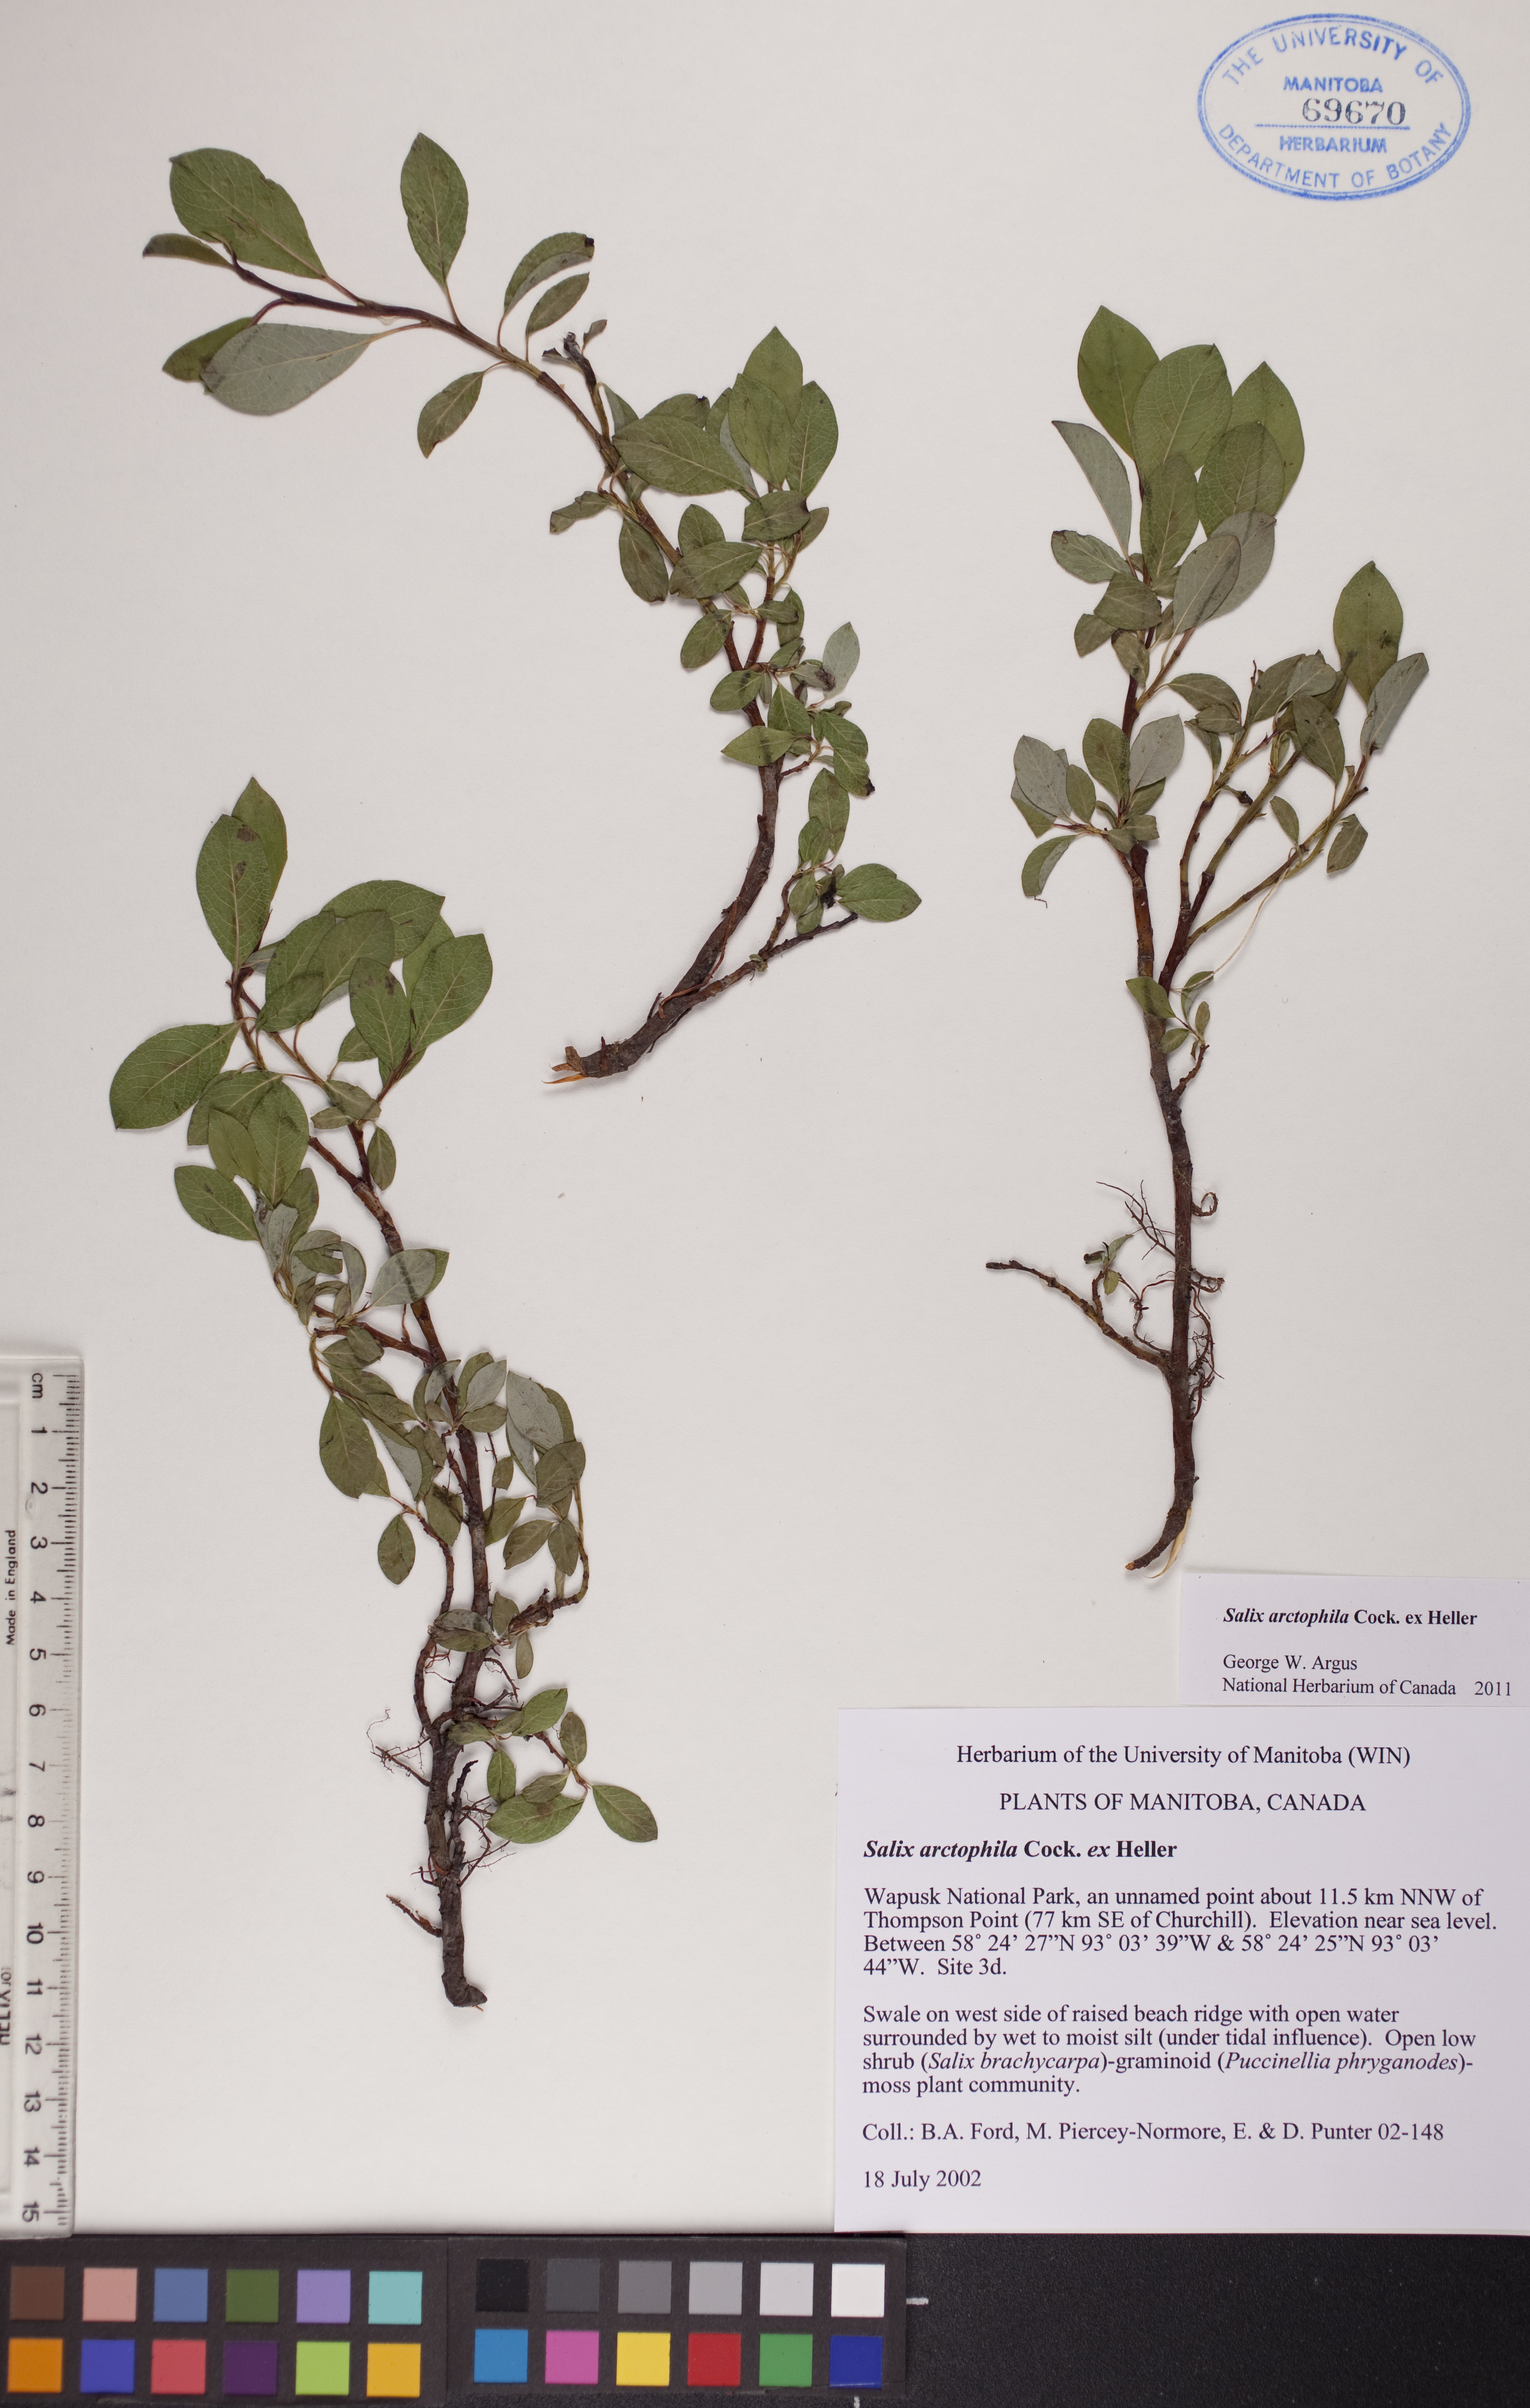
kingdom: Plantae
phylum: Tracheophyta
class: Magnoliopsida
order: Malpighiales
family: Salicaceae
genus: Salix
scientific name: Salix arctophila
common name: Greenland willow
